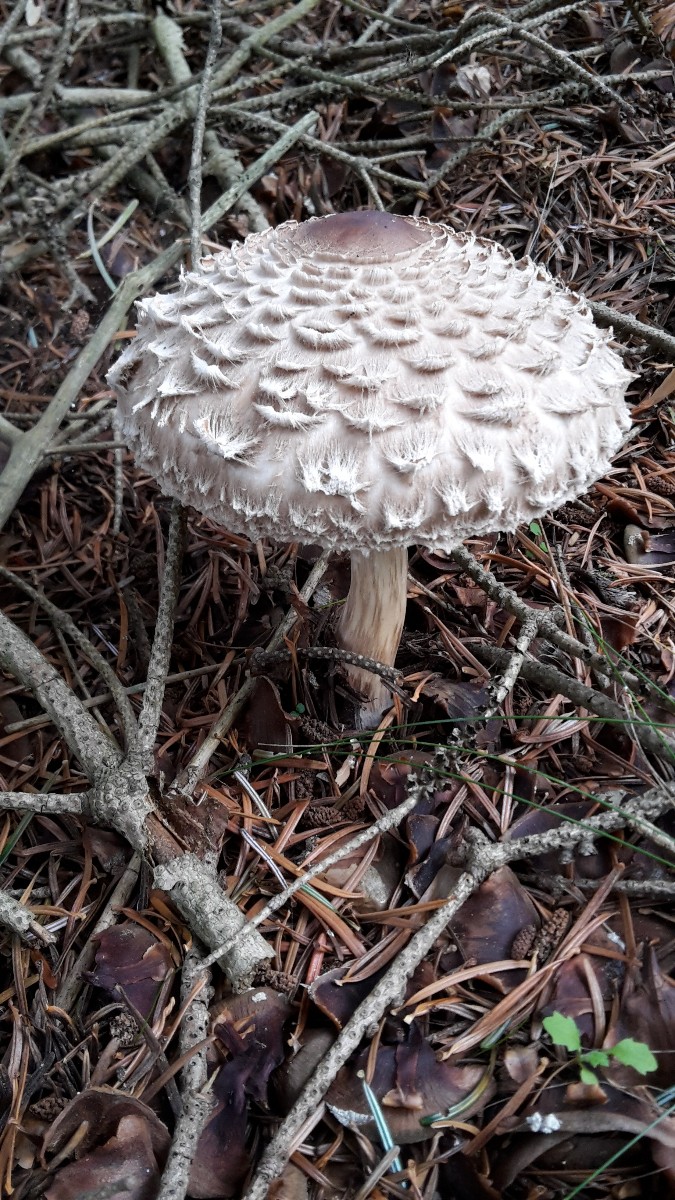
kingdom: Fungi
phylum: Basidiomycota
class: Agaricomycetes
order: Agaricales
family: Agaricaceae
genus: Chlorophyllum
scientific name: Chlorophyllum olivieri
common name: almindelig rabarberhat
